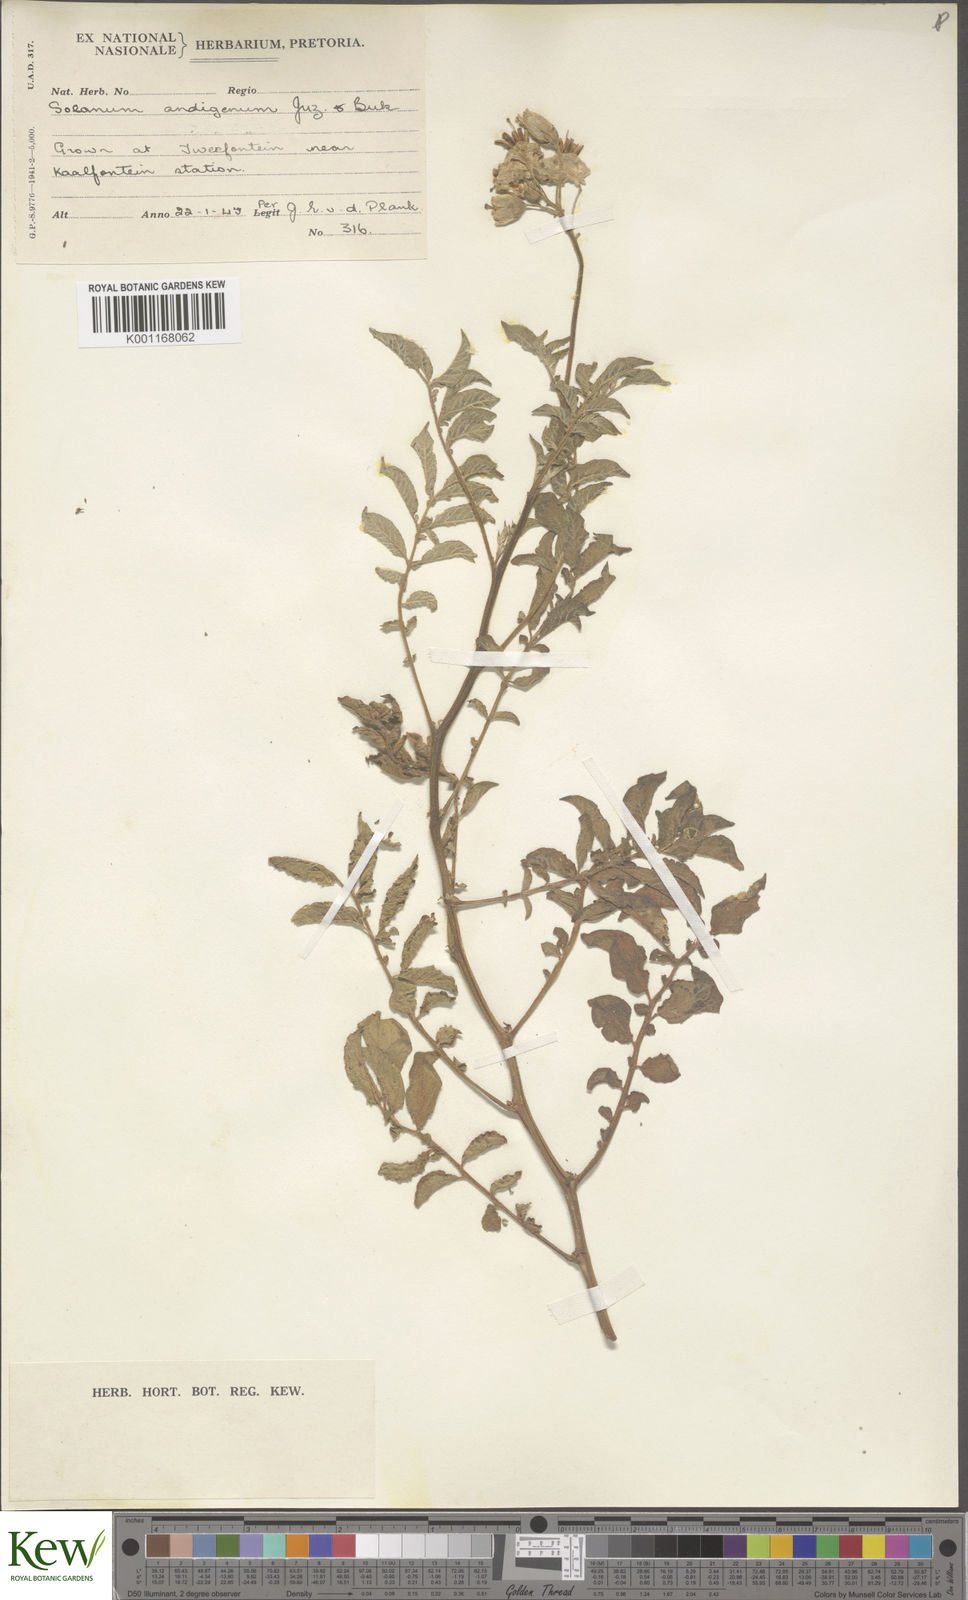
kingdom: Plantae
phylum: Tracheophyta
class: Magnoliopsida
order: Solanales
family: Solanaceae
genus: Solanum
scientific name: Solanum tuberosum
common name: Potato
